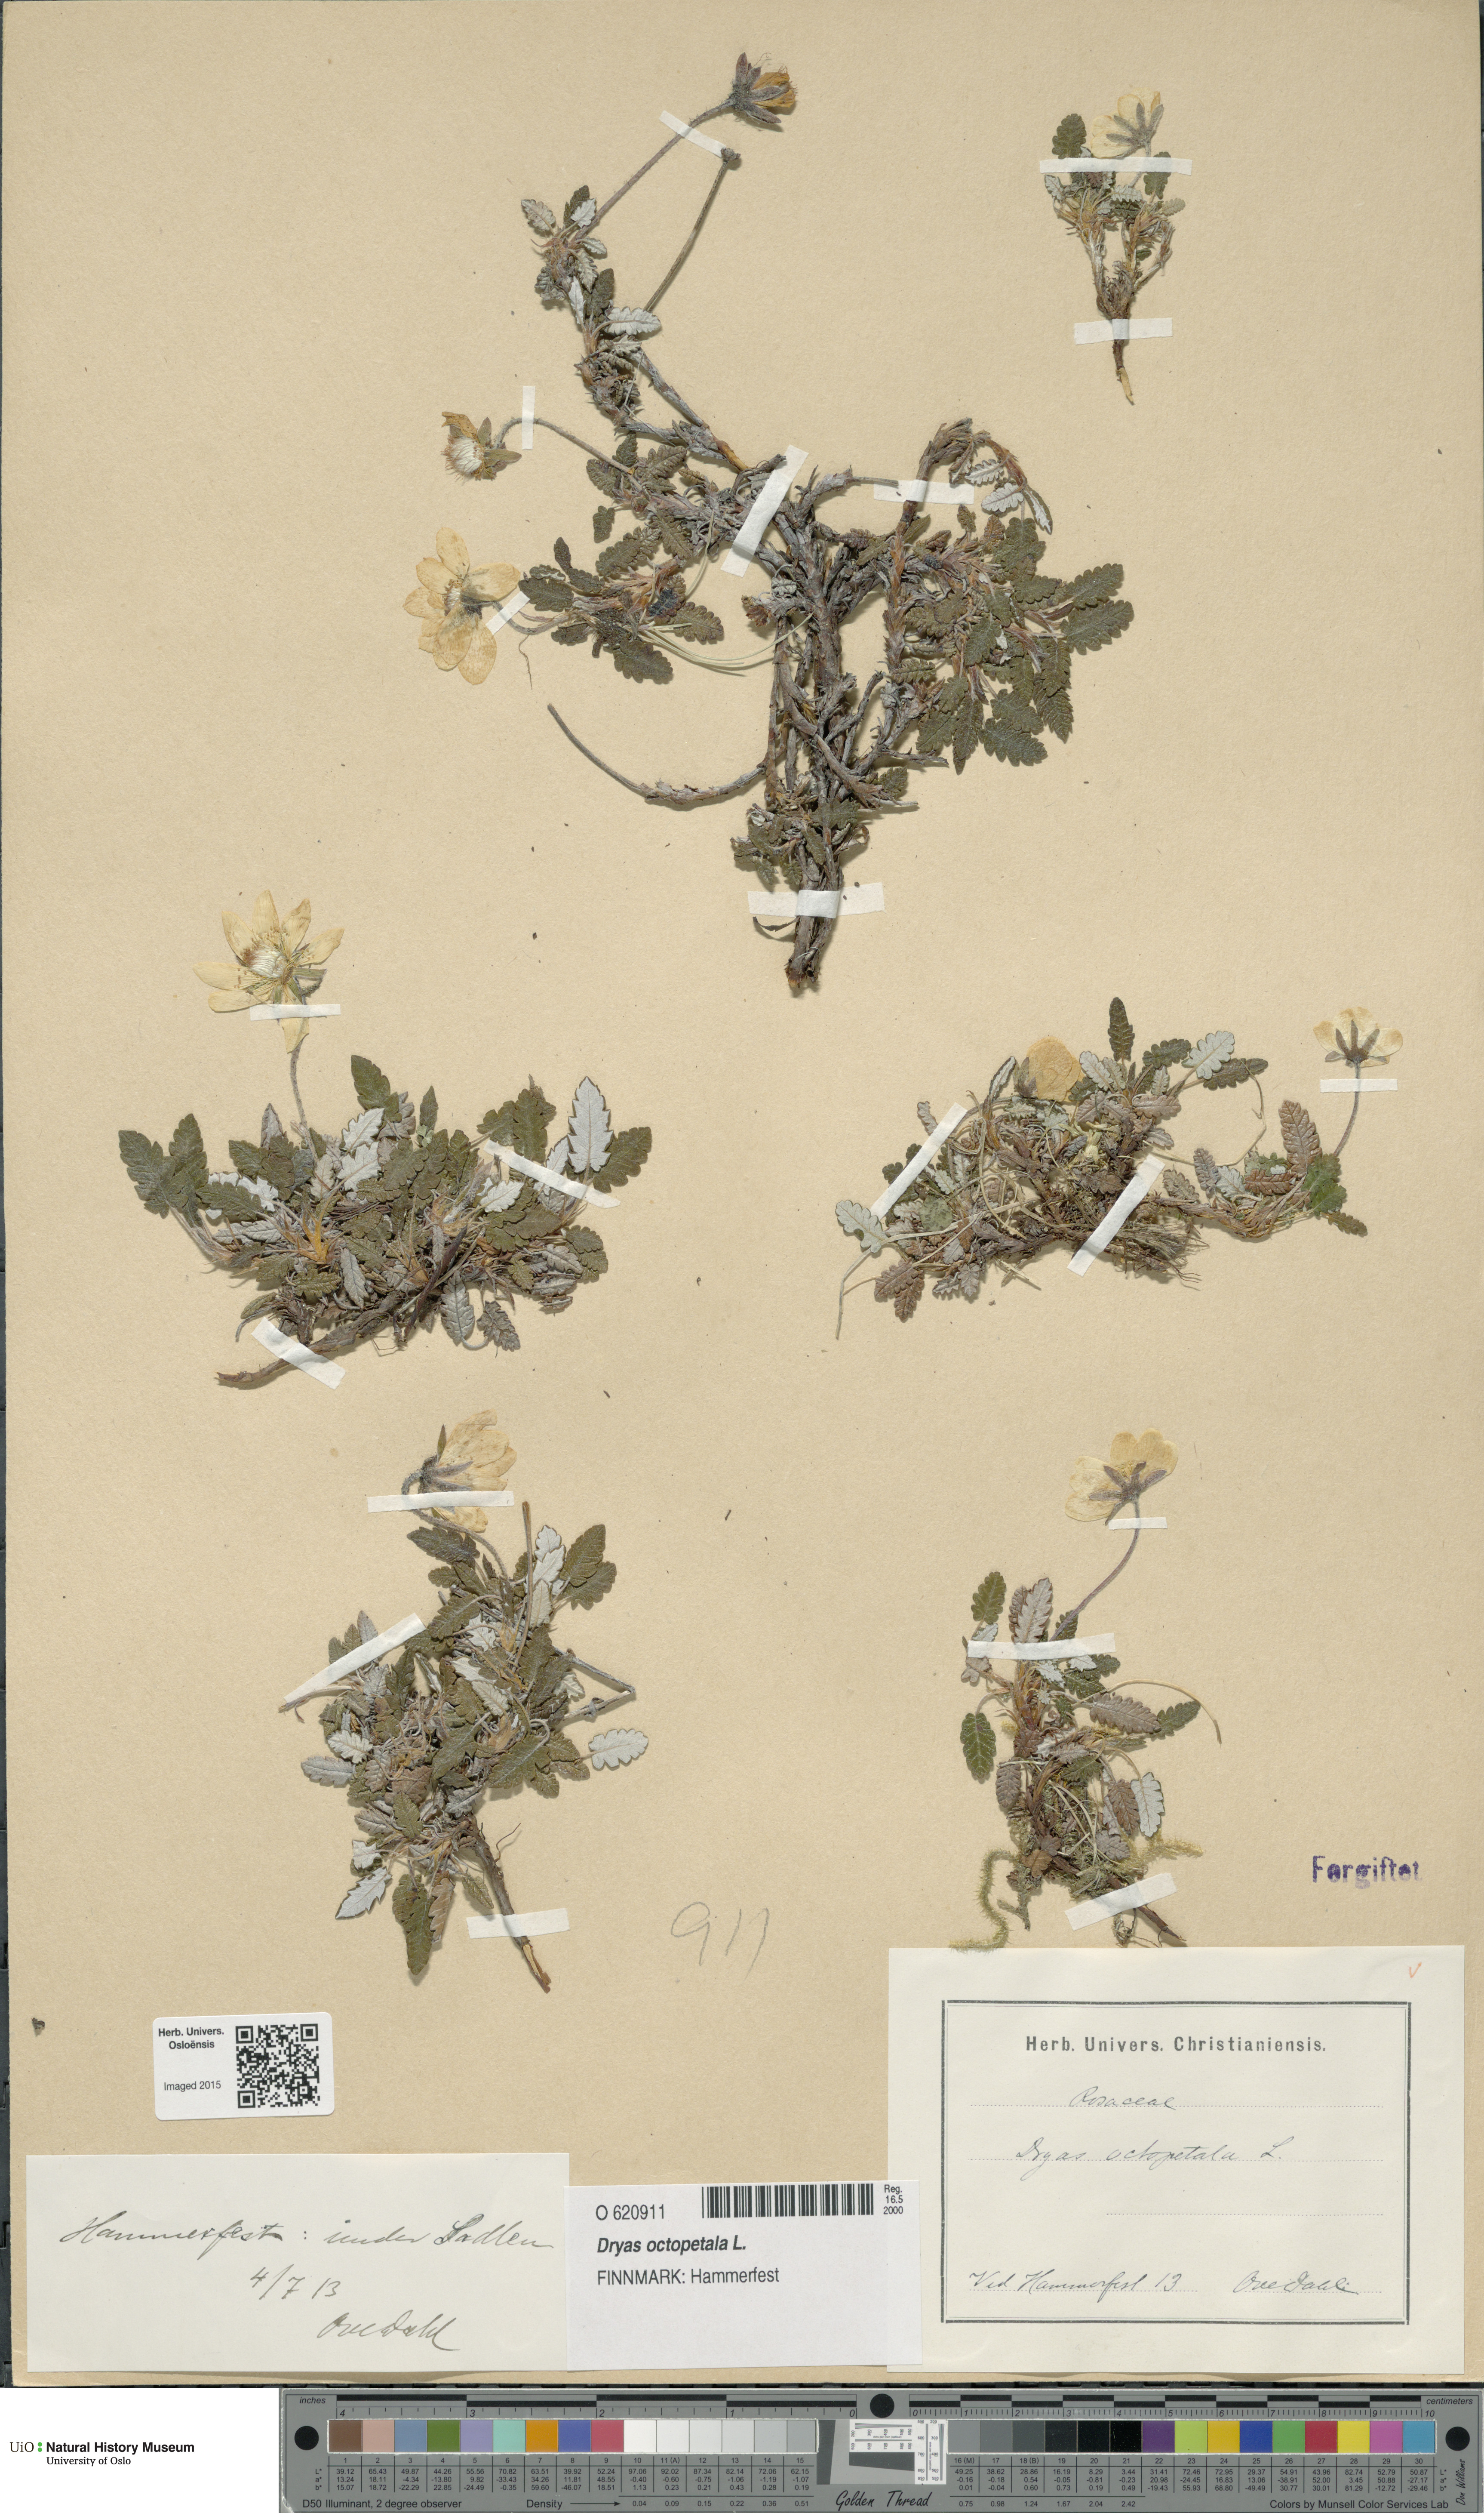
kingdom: Plantae
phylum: Tracheophyta
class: Magnoliopsida
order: Rosales
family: Rosaceae
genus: Dryas
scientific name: Dryas octopetala
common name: Eight-petal mountain-avens
